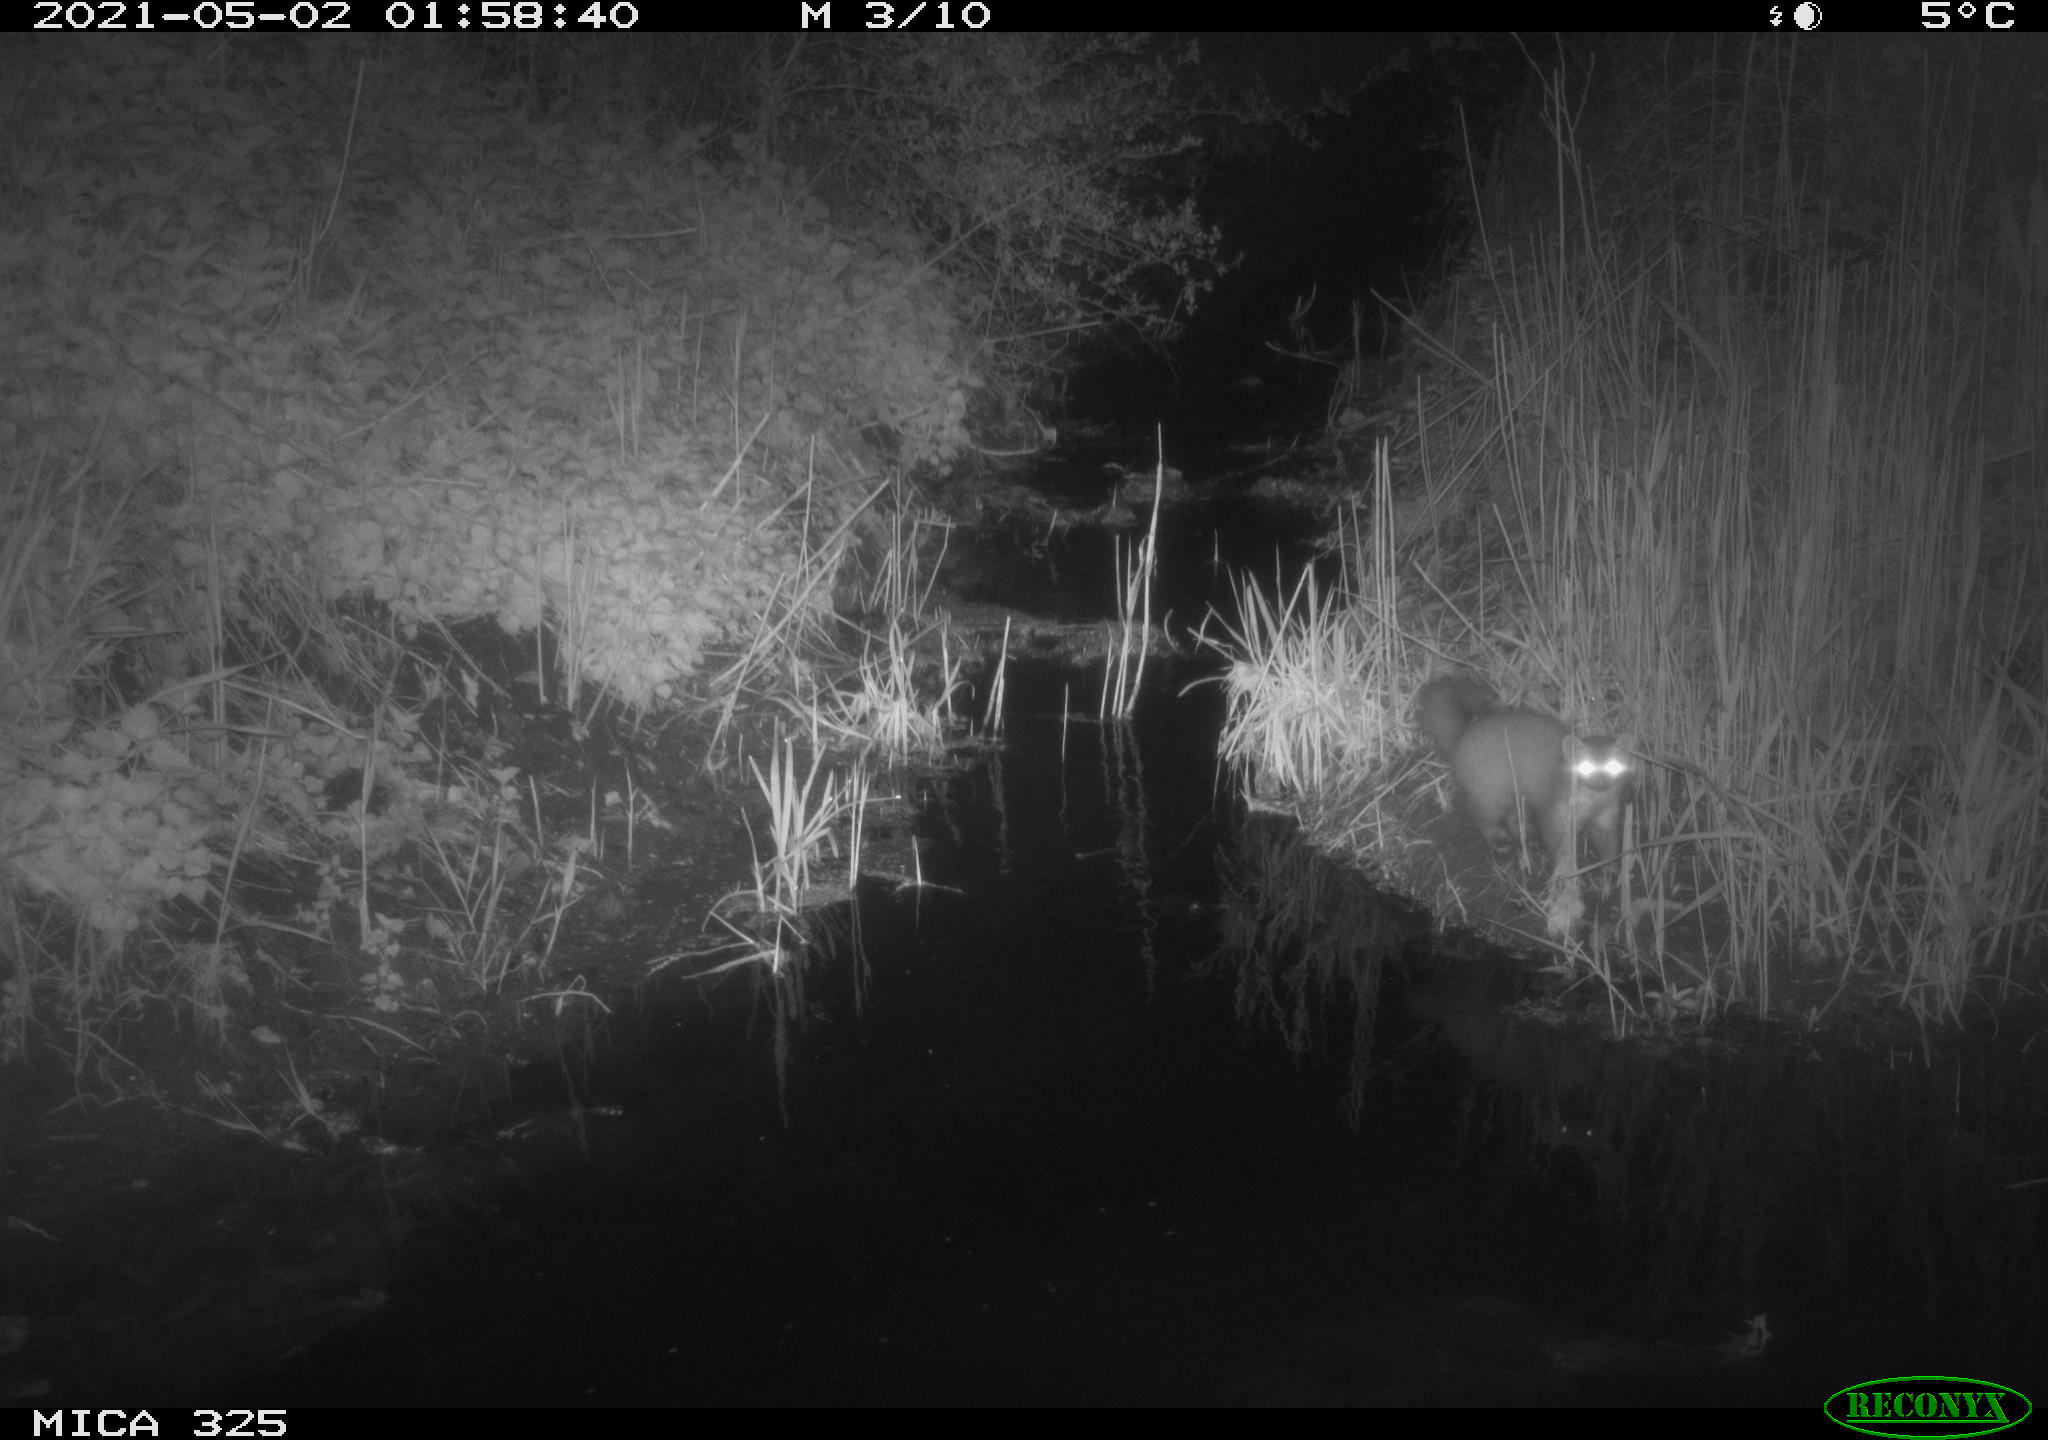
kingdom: Animalia
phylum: Chordata
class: Mammalia
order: Carnivora
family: Mustelidae
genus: Martes
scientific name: Martes martes
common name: European pine marten
